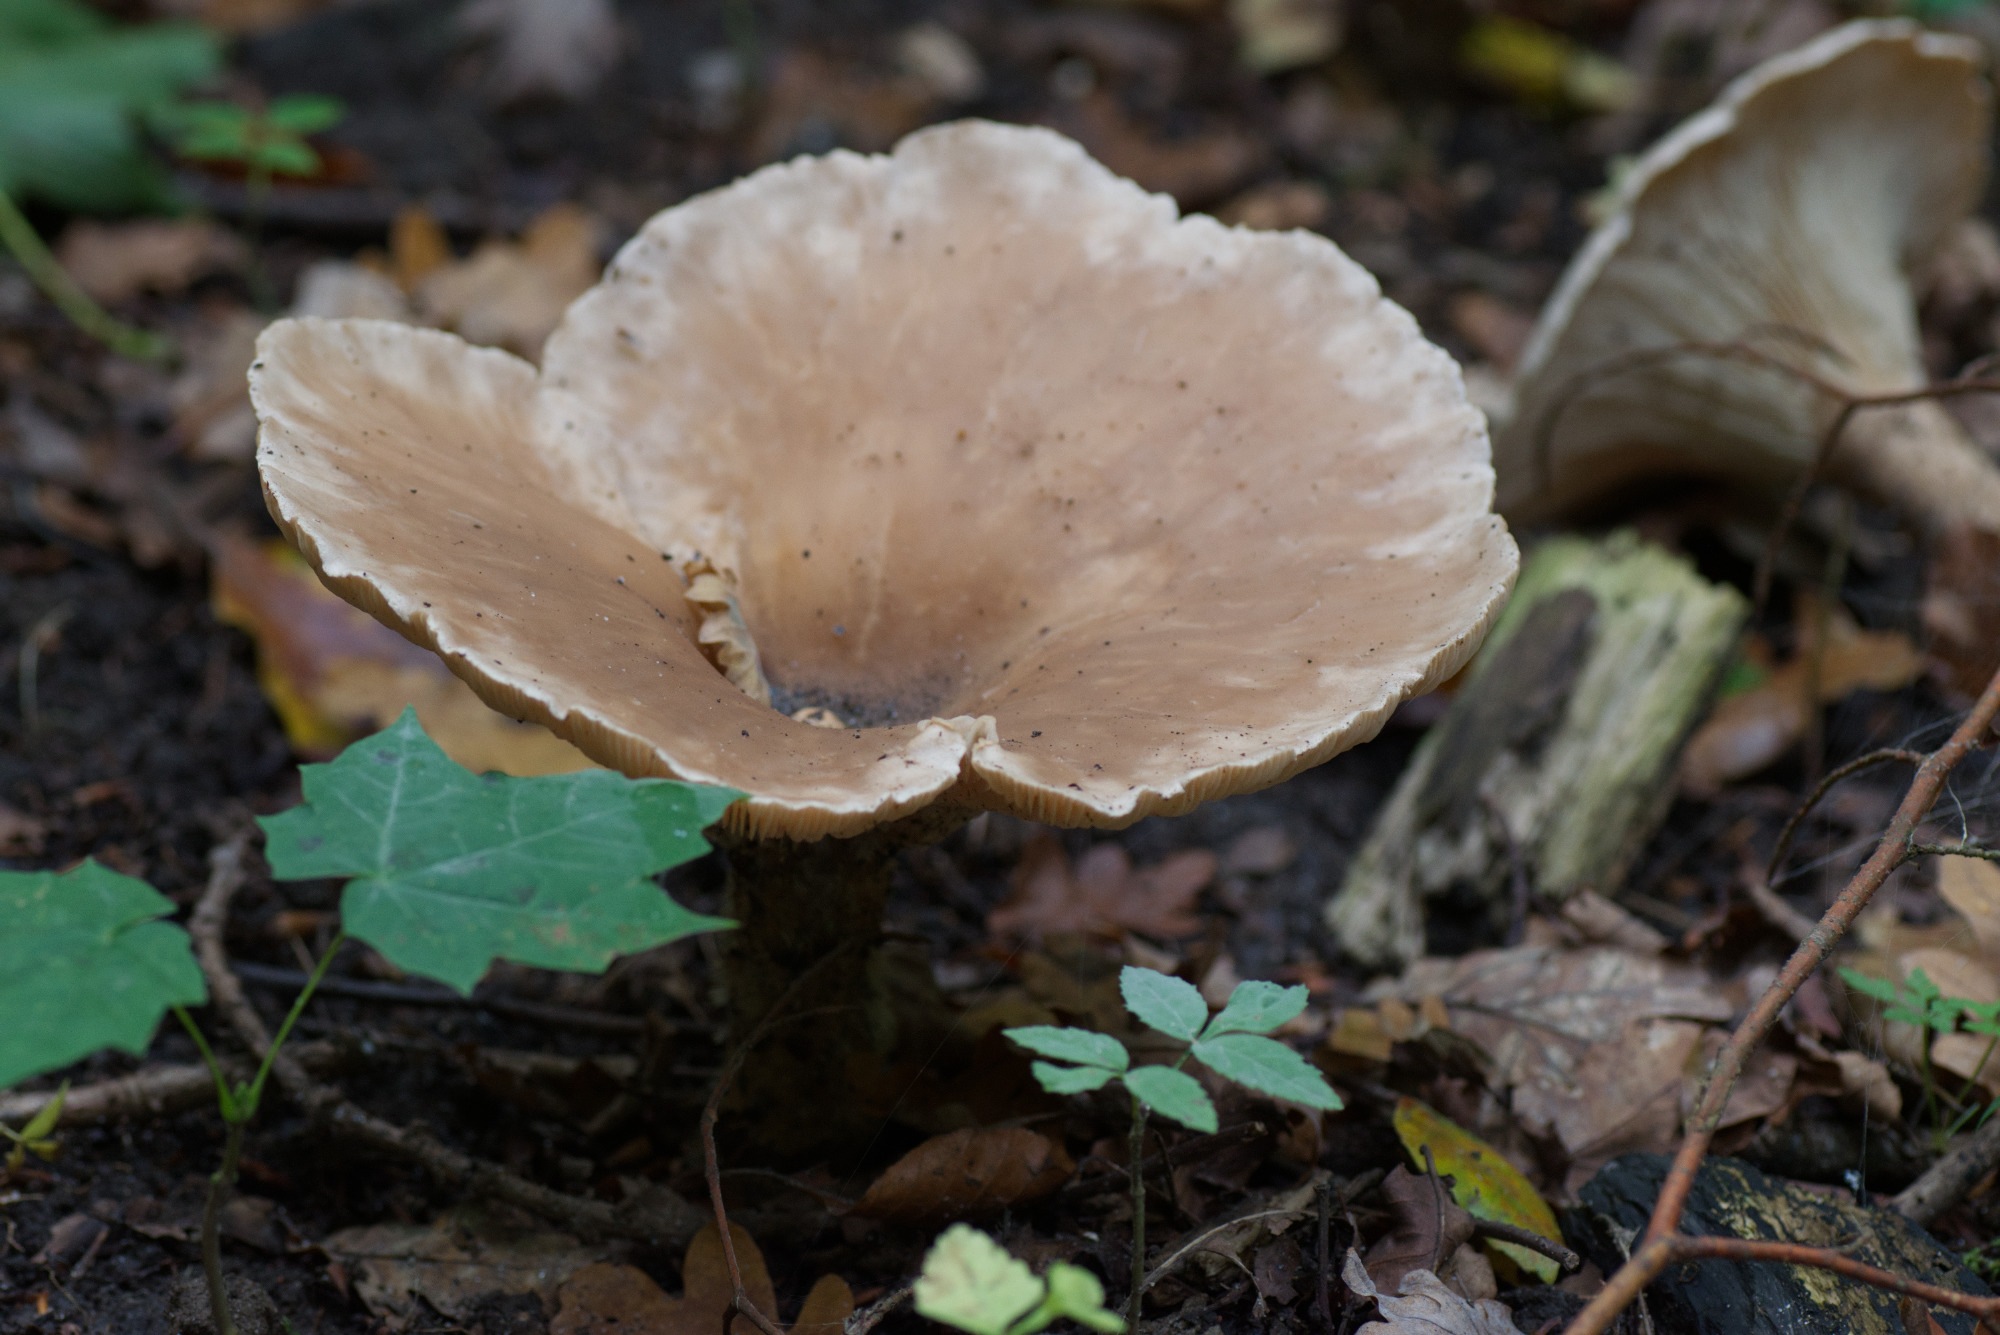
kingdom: Fungi
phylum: Basidiomycota
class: Agaricomycetes
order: Agaricales
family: Tricholomataceae
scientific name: Tricholomataceae
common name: ridderhatfamilien
